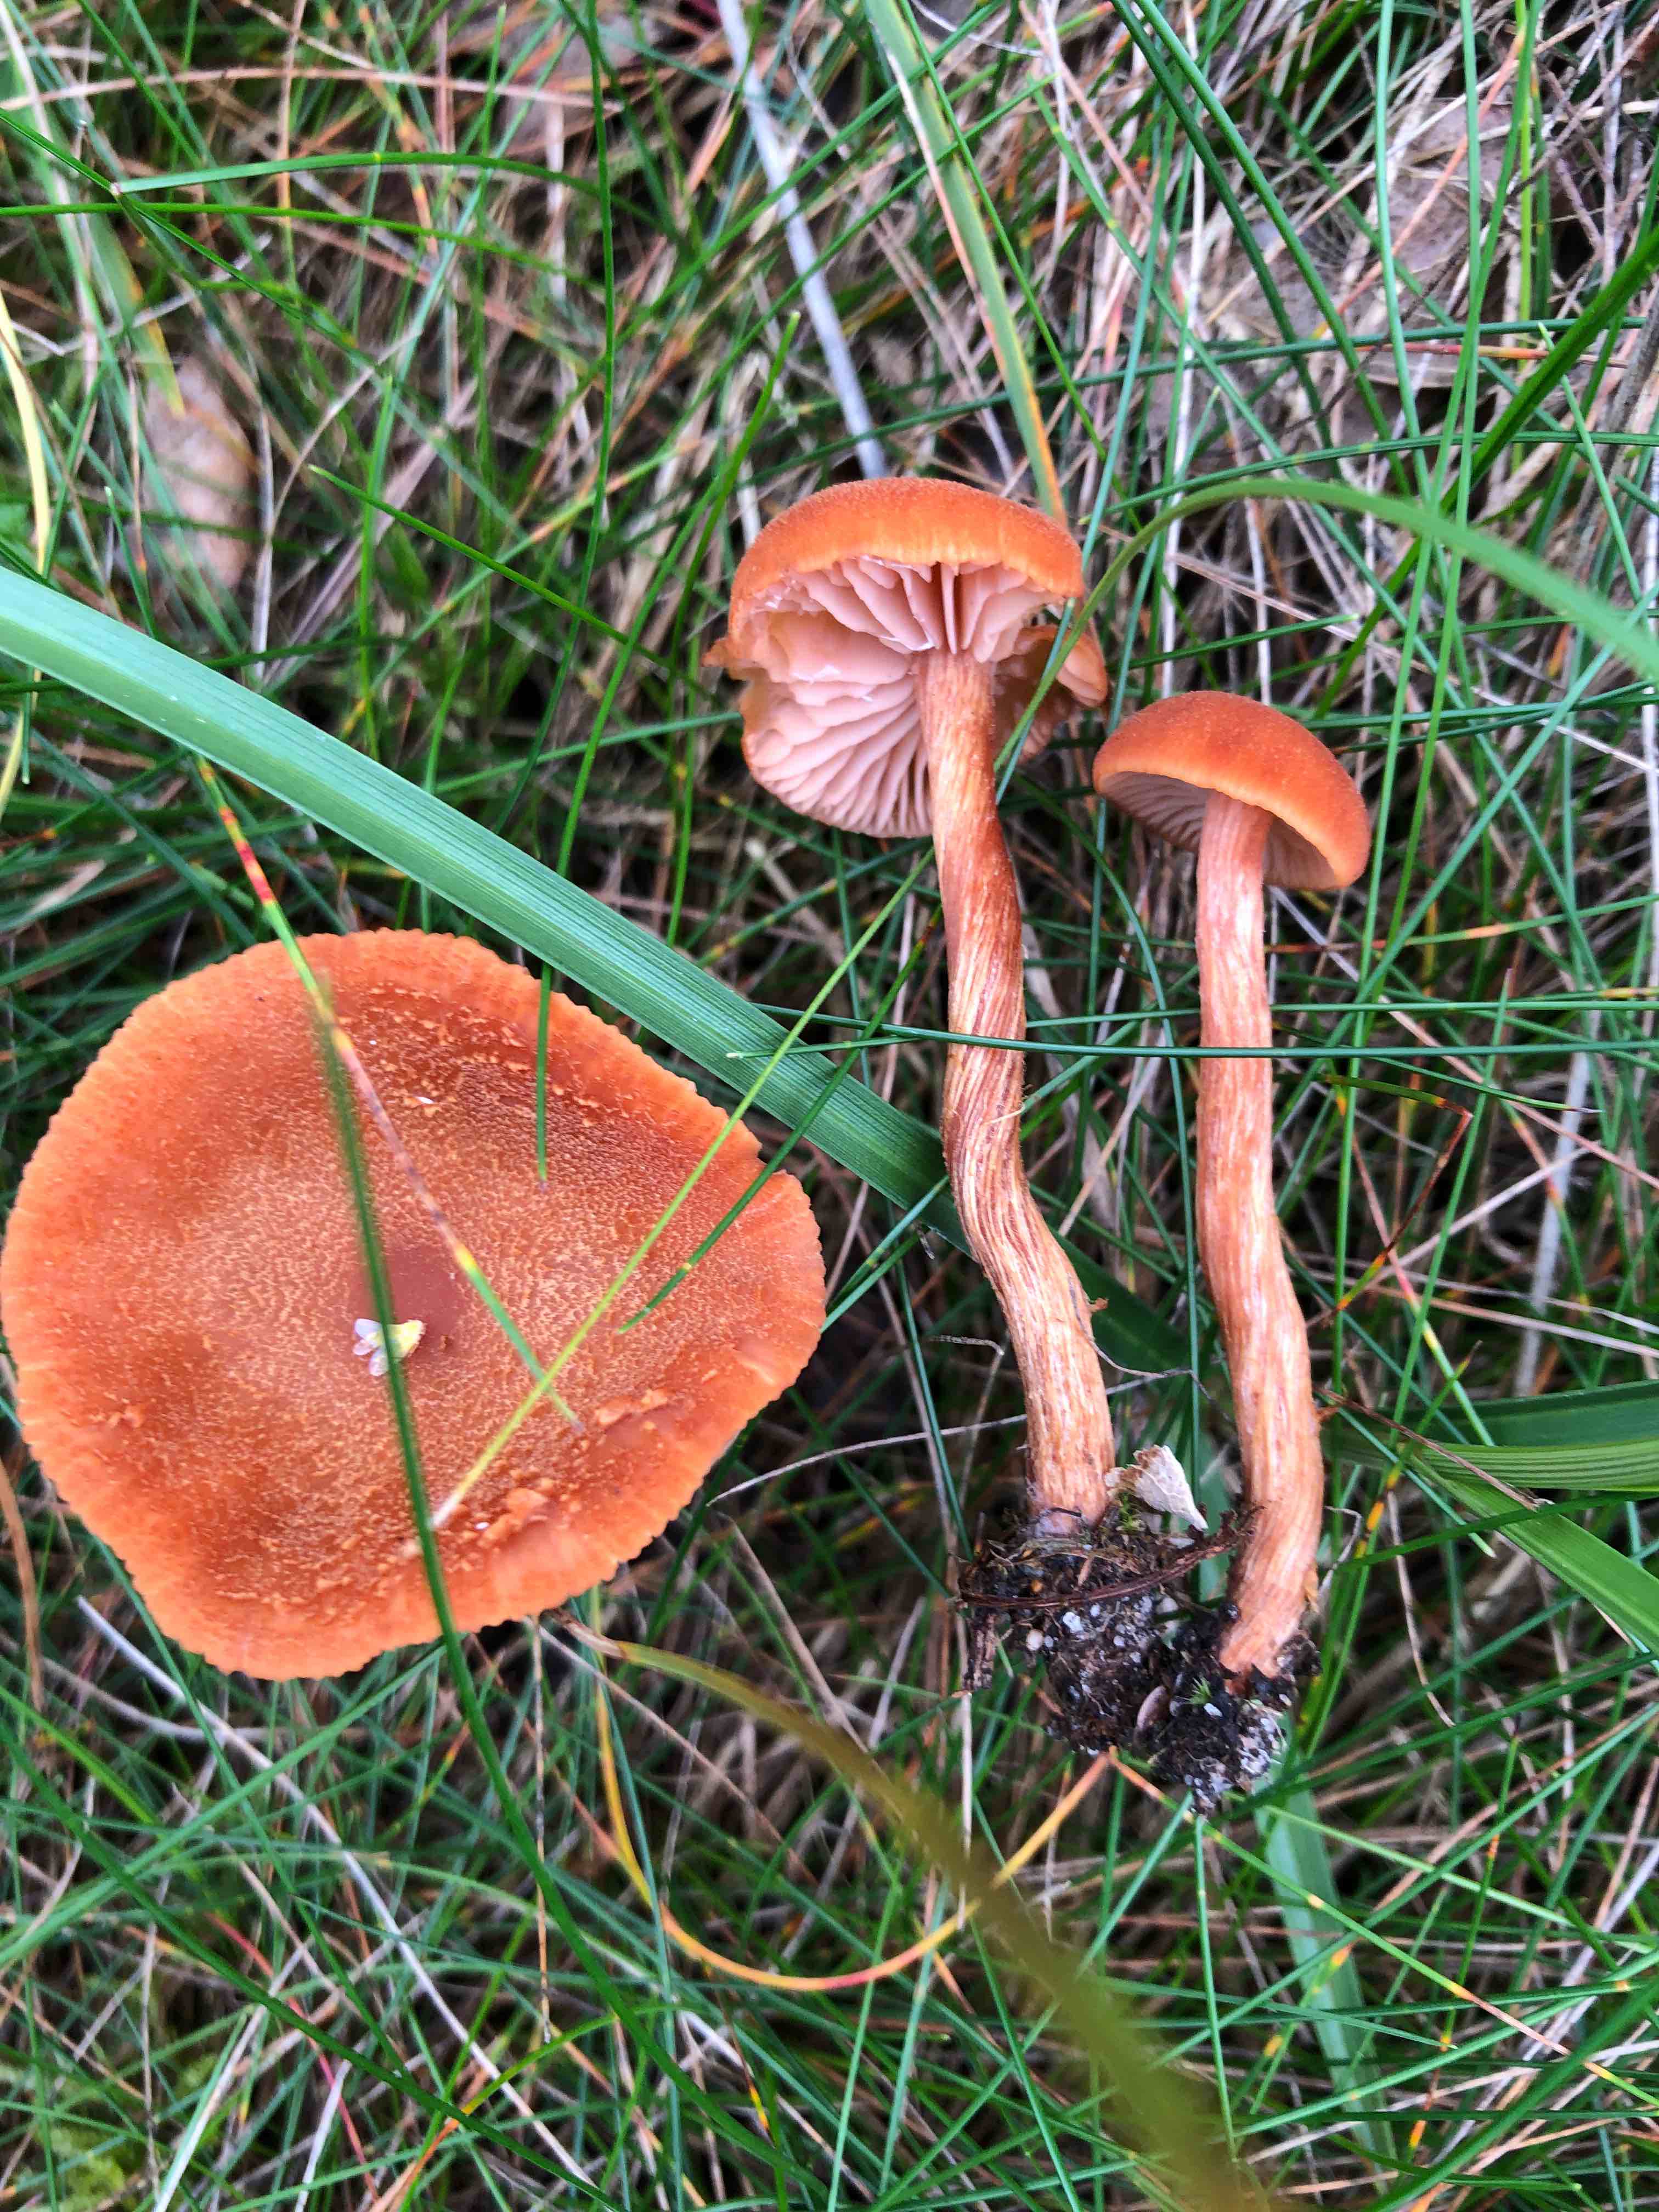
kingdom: Fungi
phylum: Basidiomycota
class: Agaricomycetes
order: Agaricales
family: Hydnangiaceae
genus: Laccaria
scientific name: Laccaria proxima
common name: stor ametysthat
